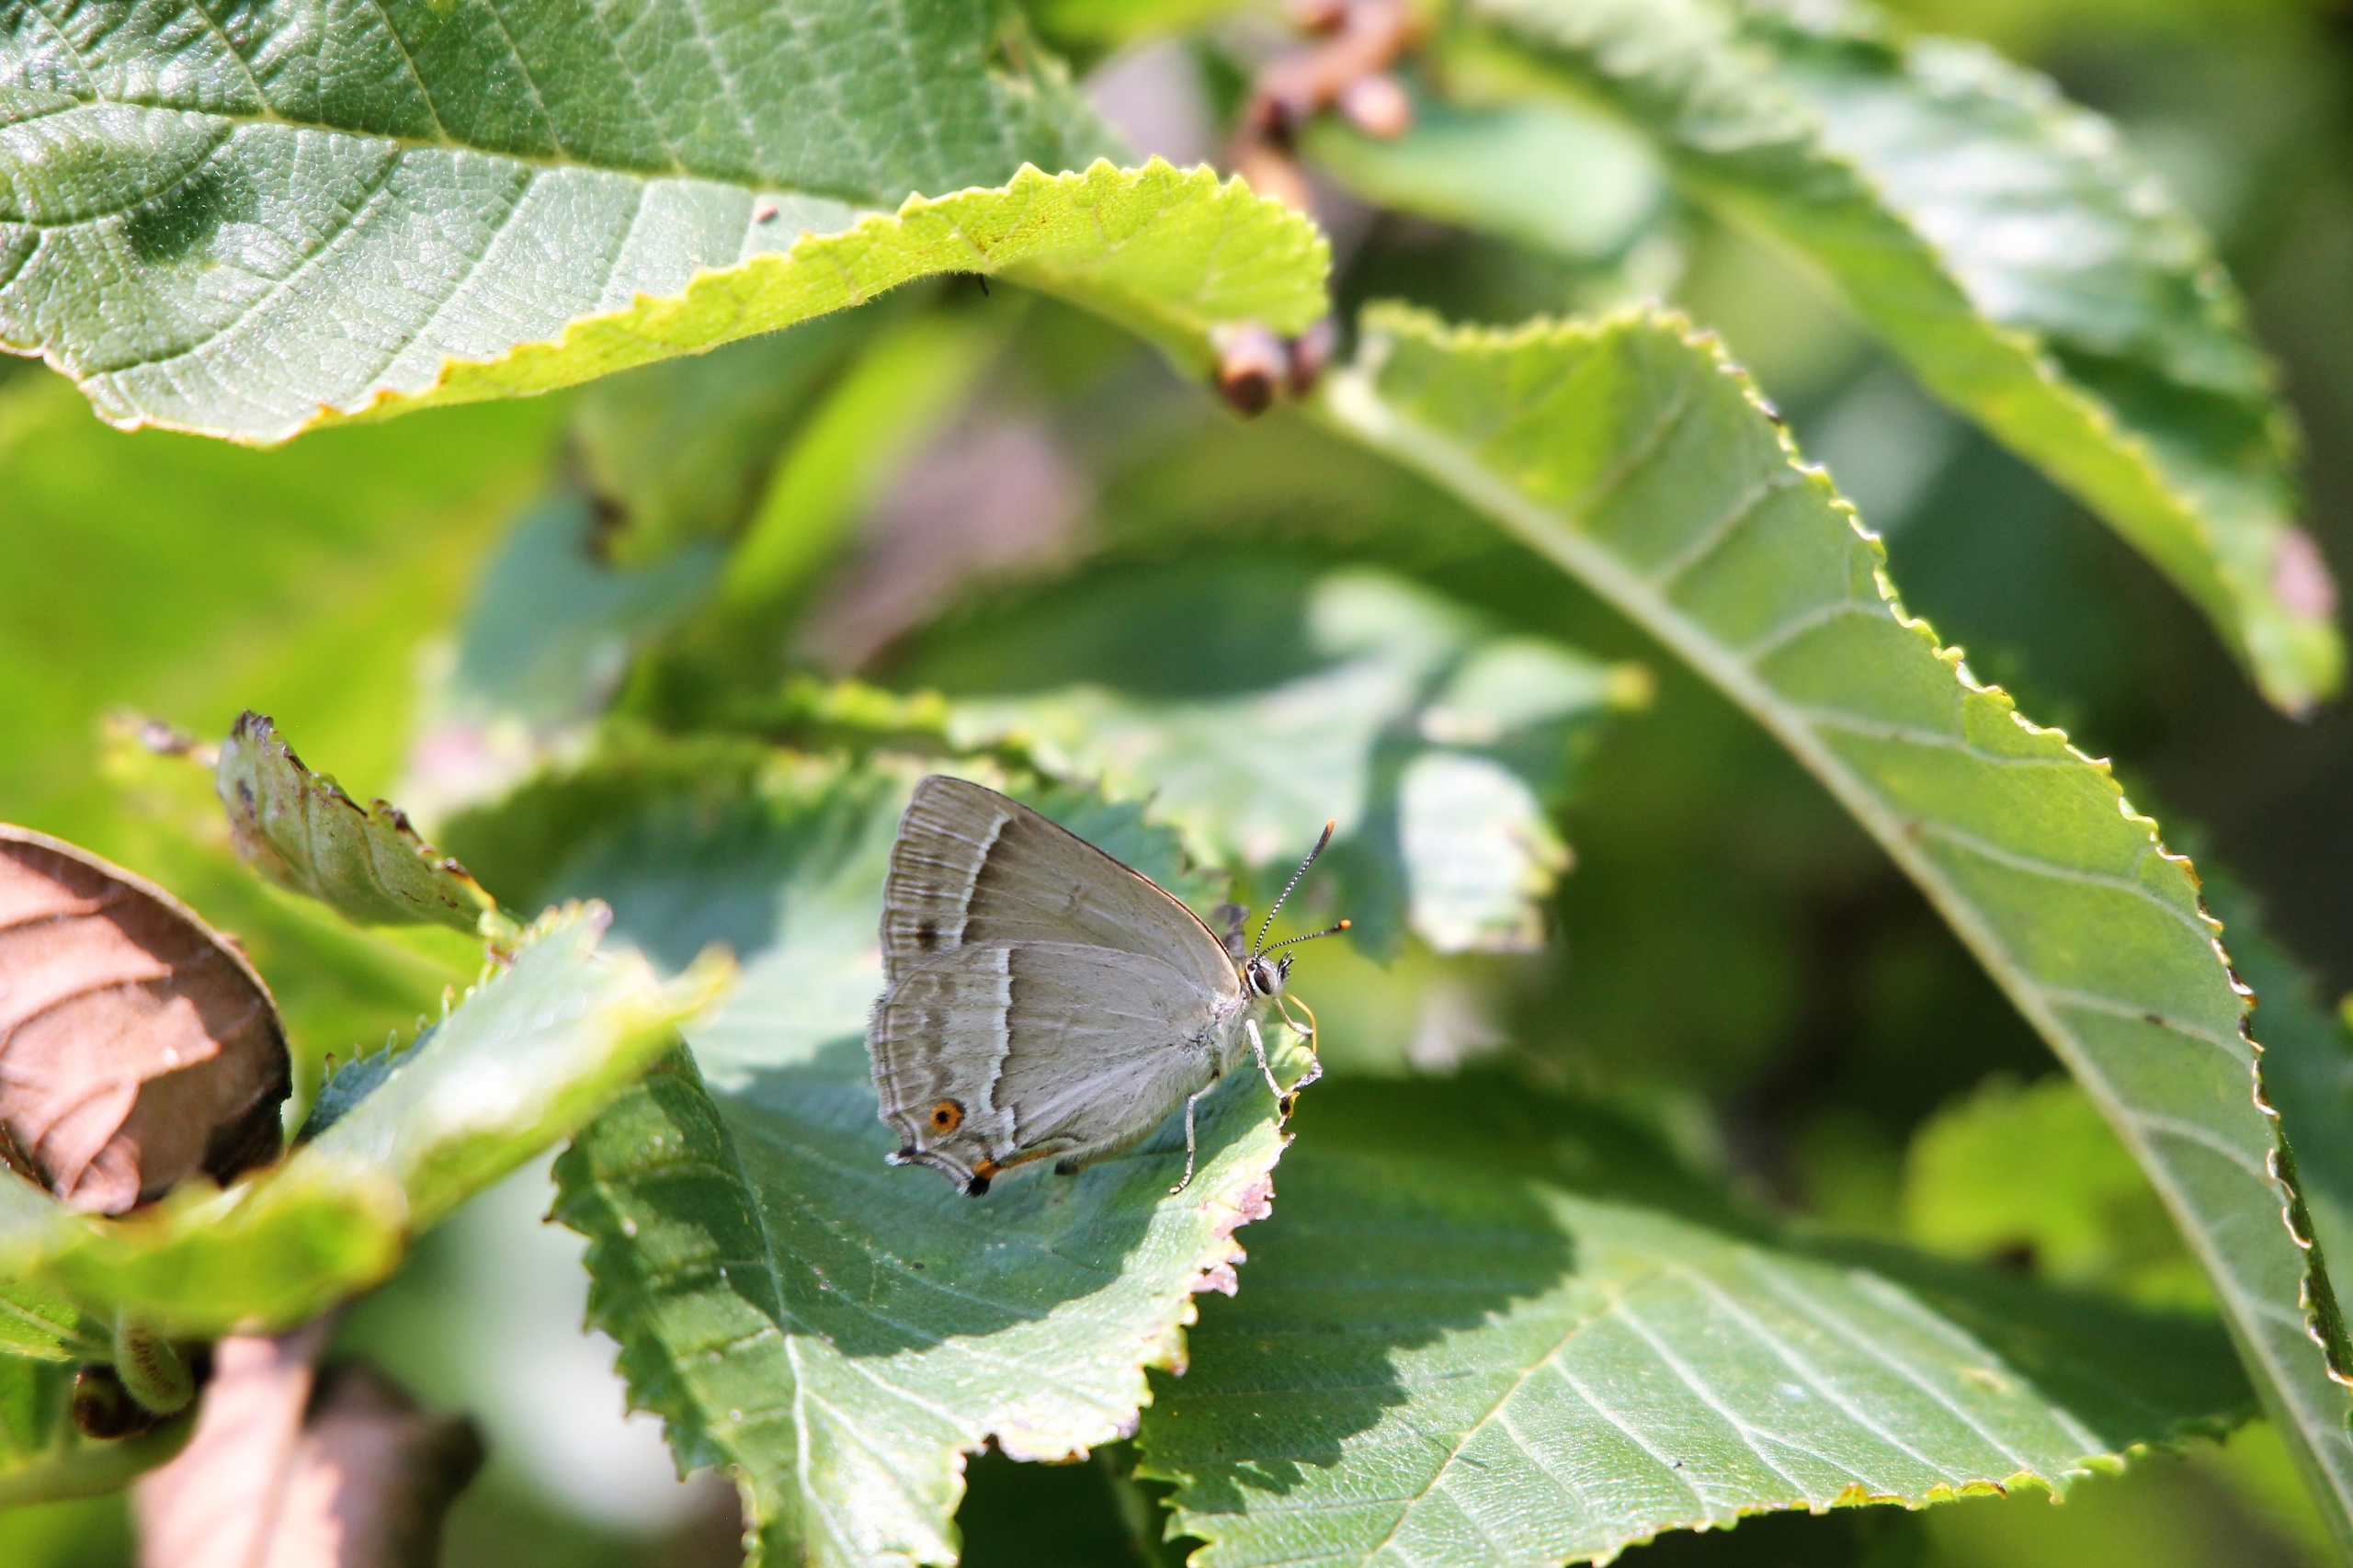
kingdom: Animalia
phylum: Arthropoda
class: Insecta
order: Lepidoptera
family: Lycaenidae
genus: Quercusia
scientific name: Quercusia quercus
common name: Blåhale
